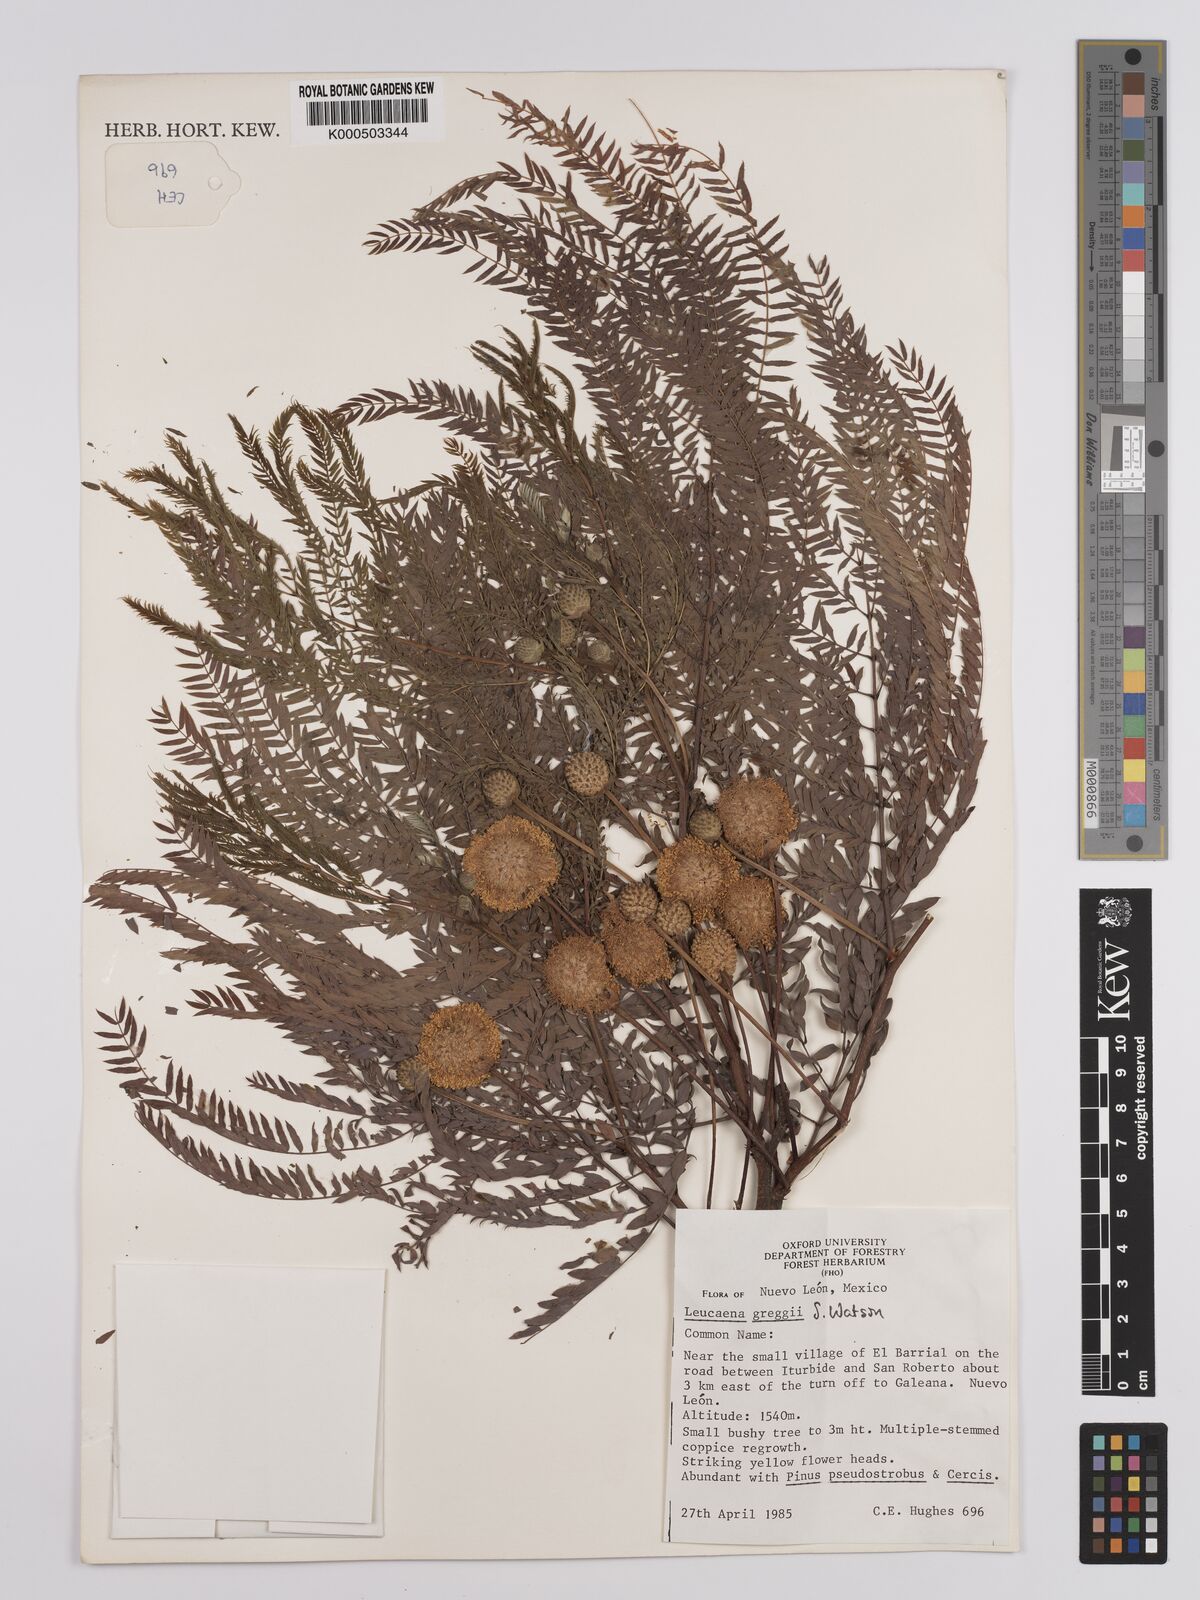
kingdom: Plantae
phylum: Tracheophyta
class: Magnoliopsida
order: Fabales
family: Fabaceae
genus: Leucaena
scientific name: Leucaena greggii
